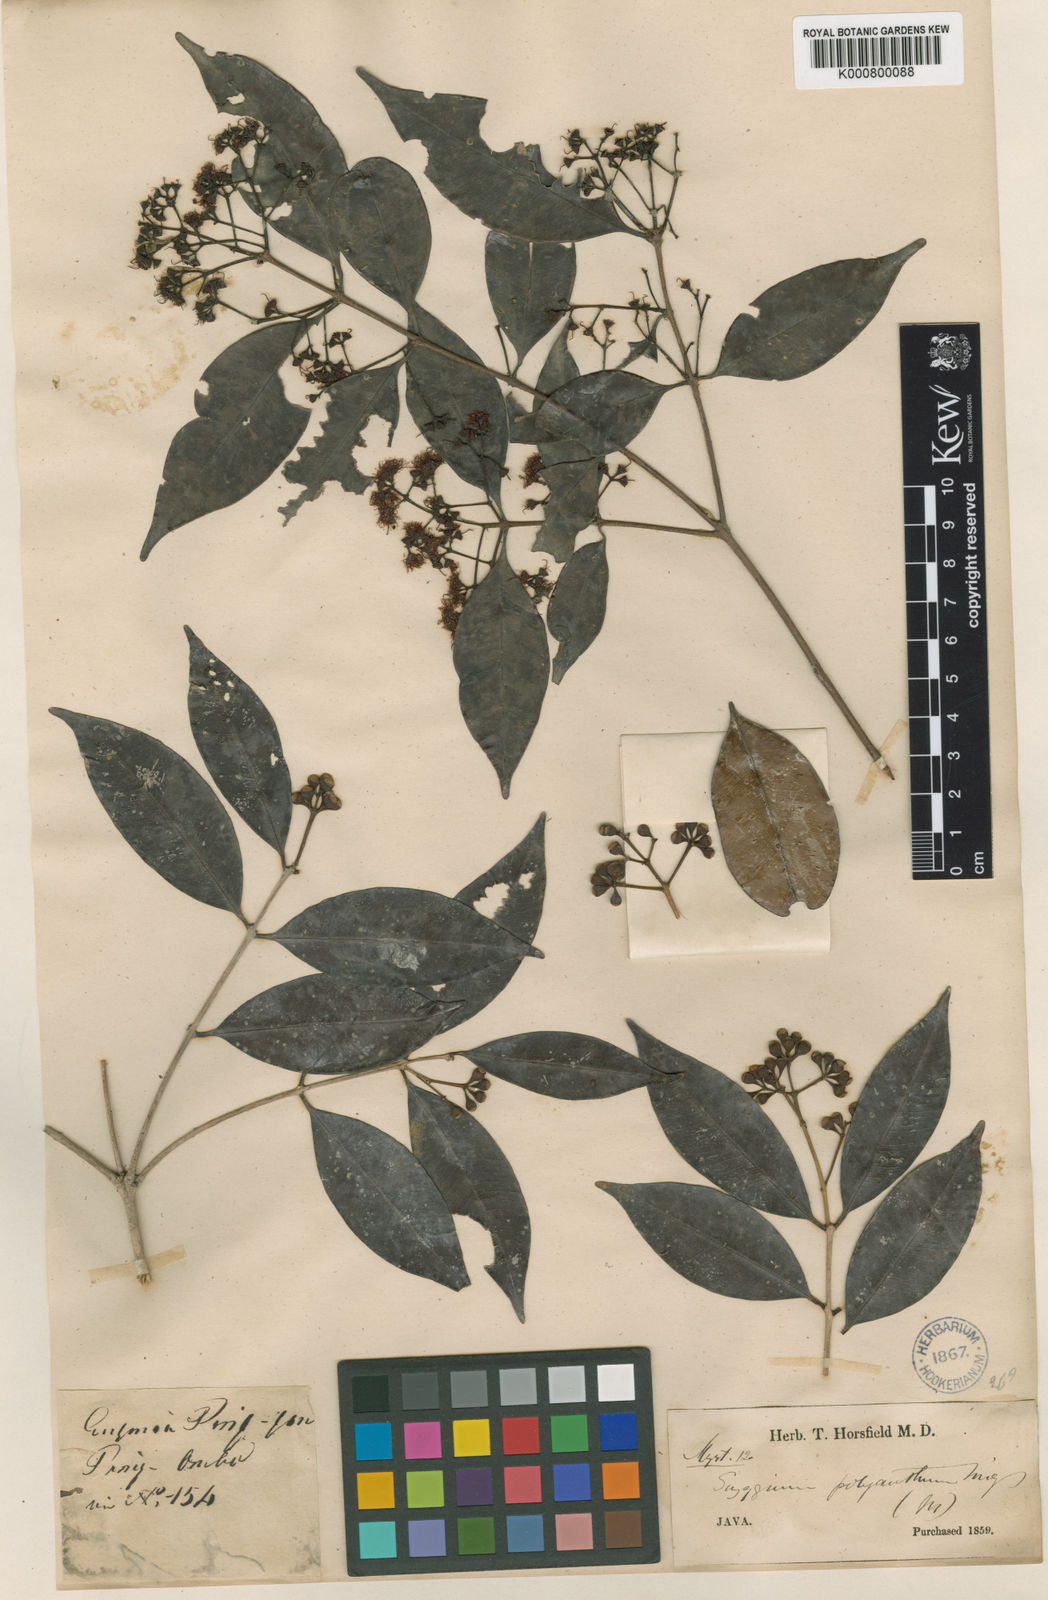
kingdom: Plantae
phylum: Tracheophyta
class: Magnoliopsida
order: Myrtales
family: Myrtaceae
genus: Syzygium
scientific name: Syzygium
